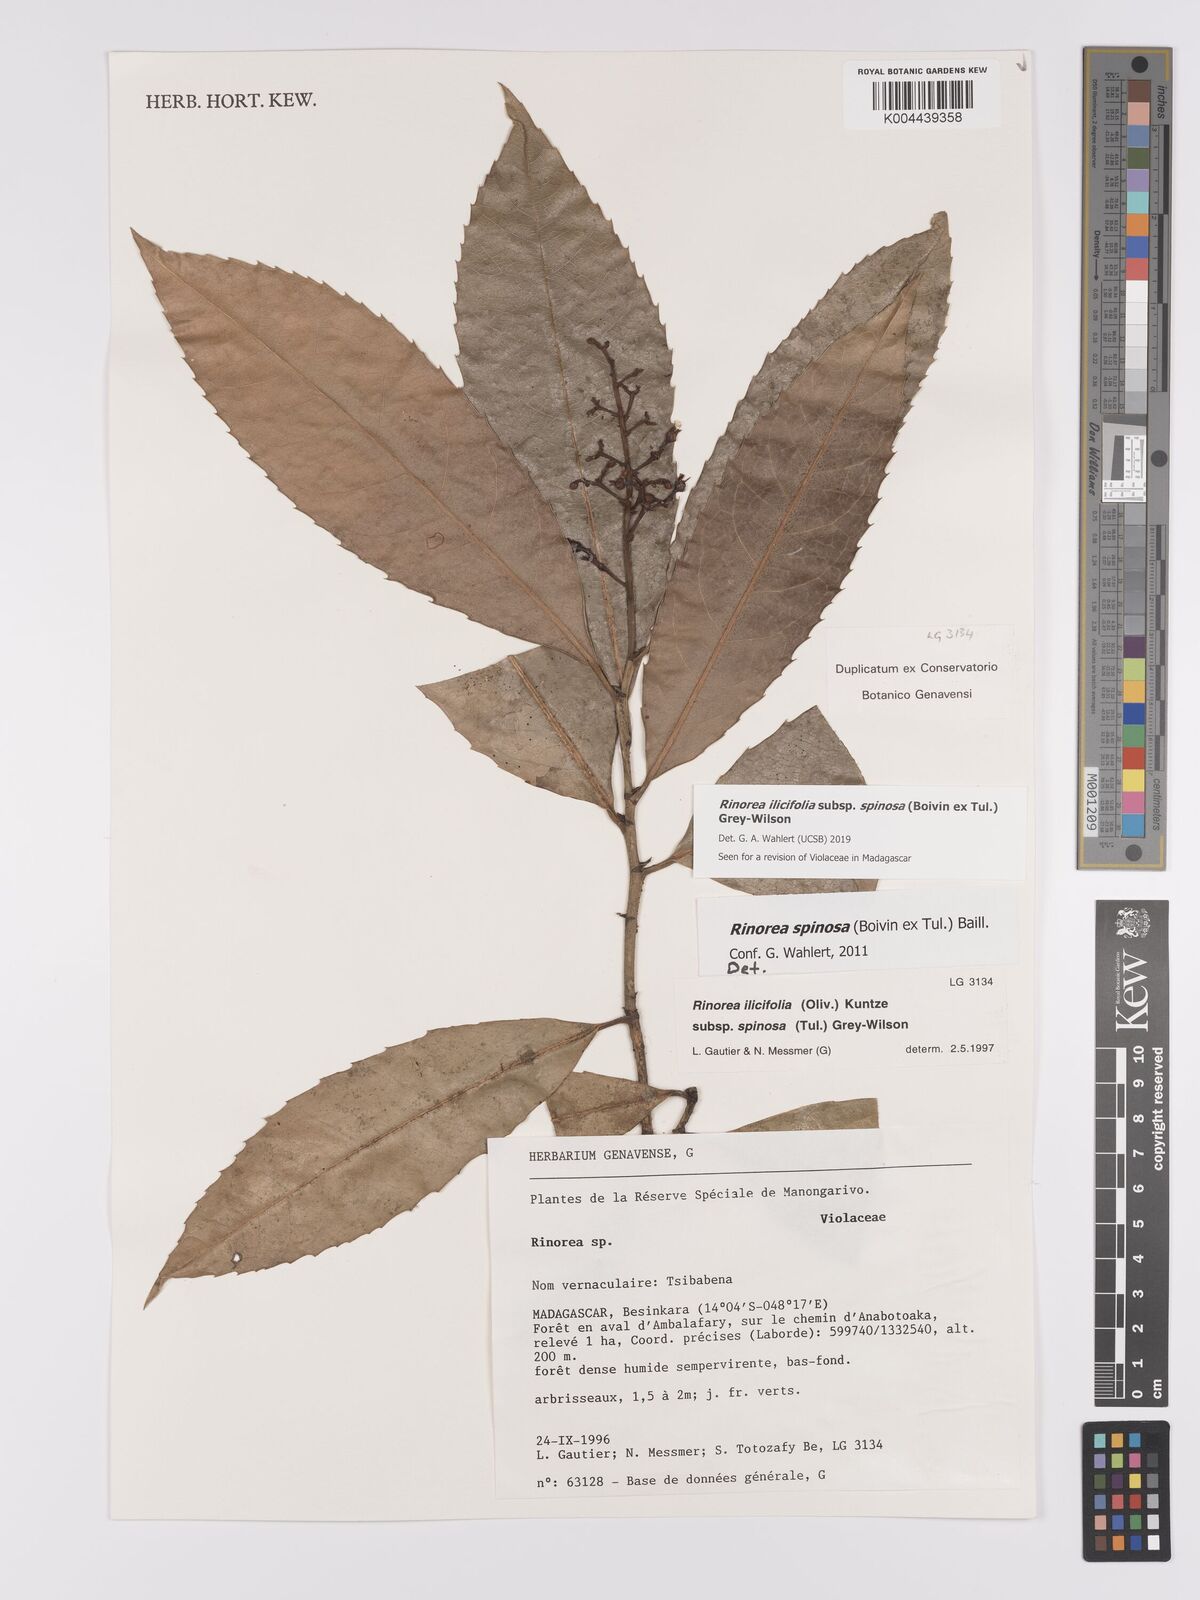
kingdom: Plantae
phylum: Tracheophyta
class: Magnoliopsida
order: Malpighiales
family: Violaceae
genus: Rinorea
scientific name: Rinorea spinosa
